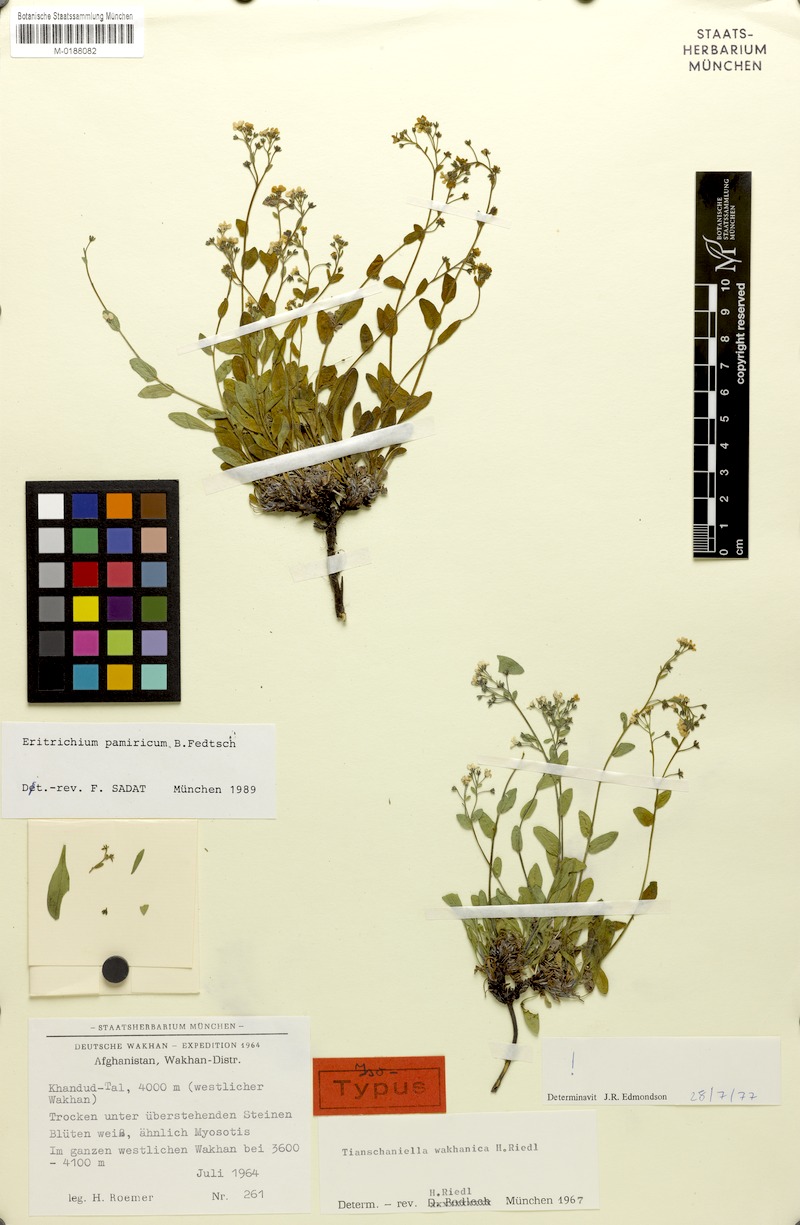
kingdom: Plantae
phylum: Tracheophyta
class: Magnoliopsida
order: Boraginales
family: Boraginaceae
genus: Eritrichium
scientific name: Eritrichium pamiricum
